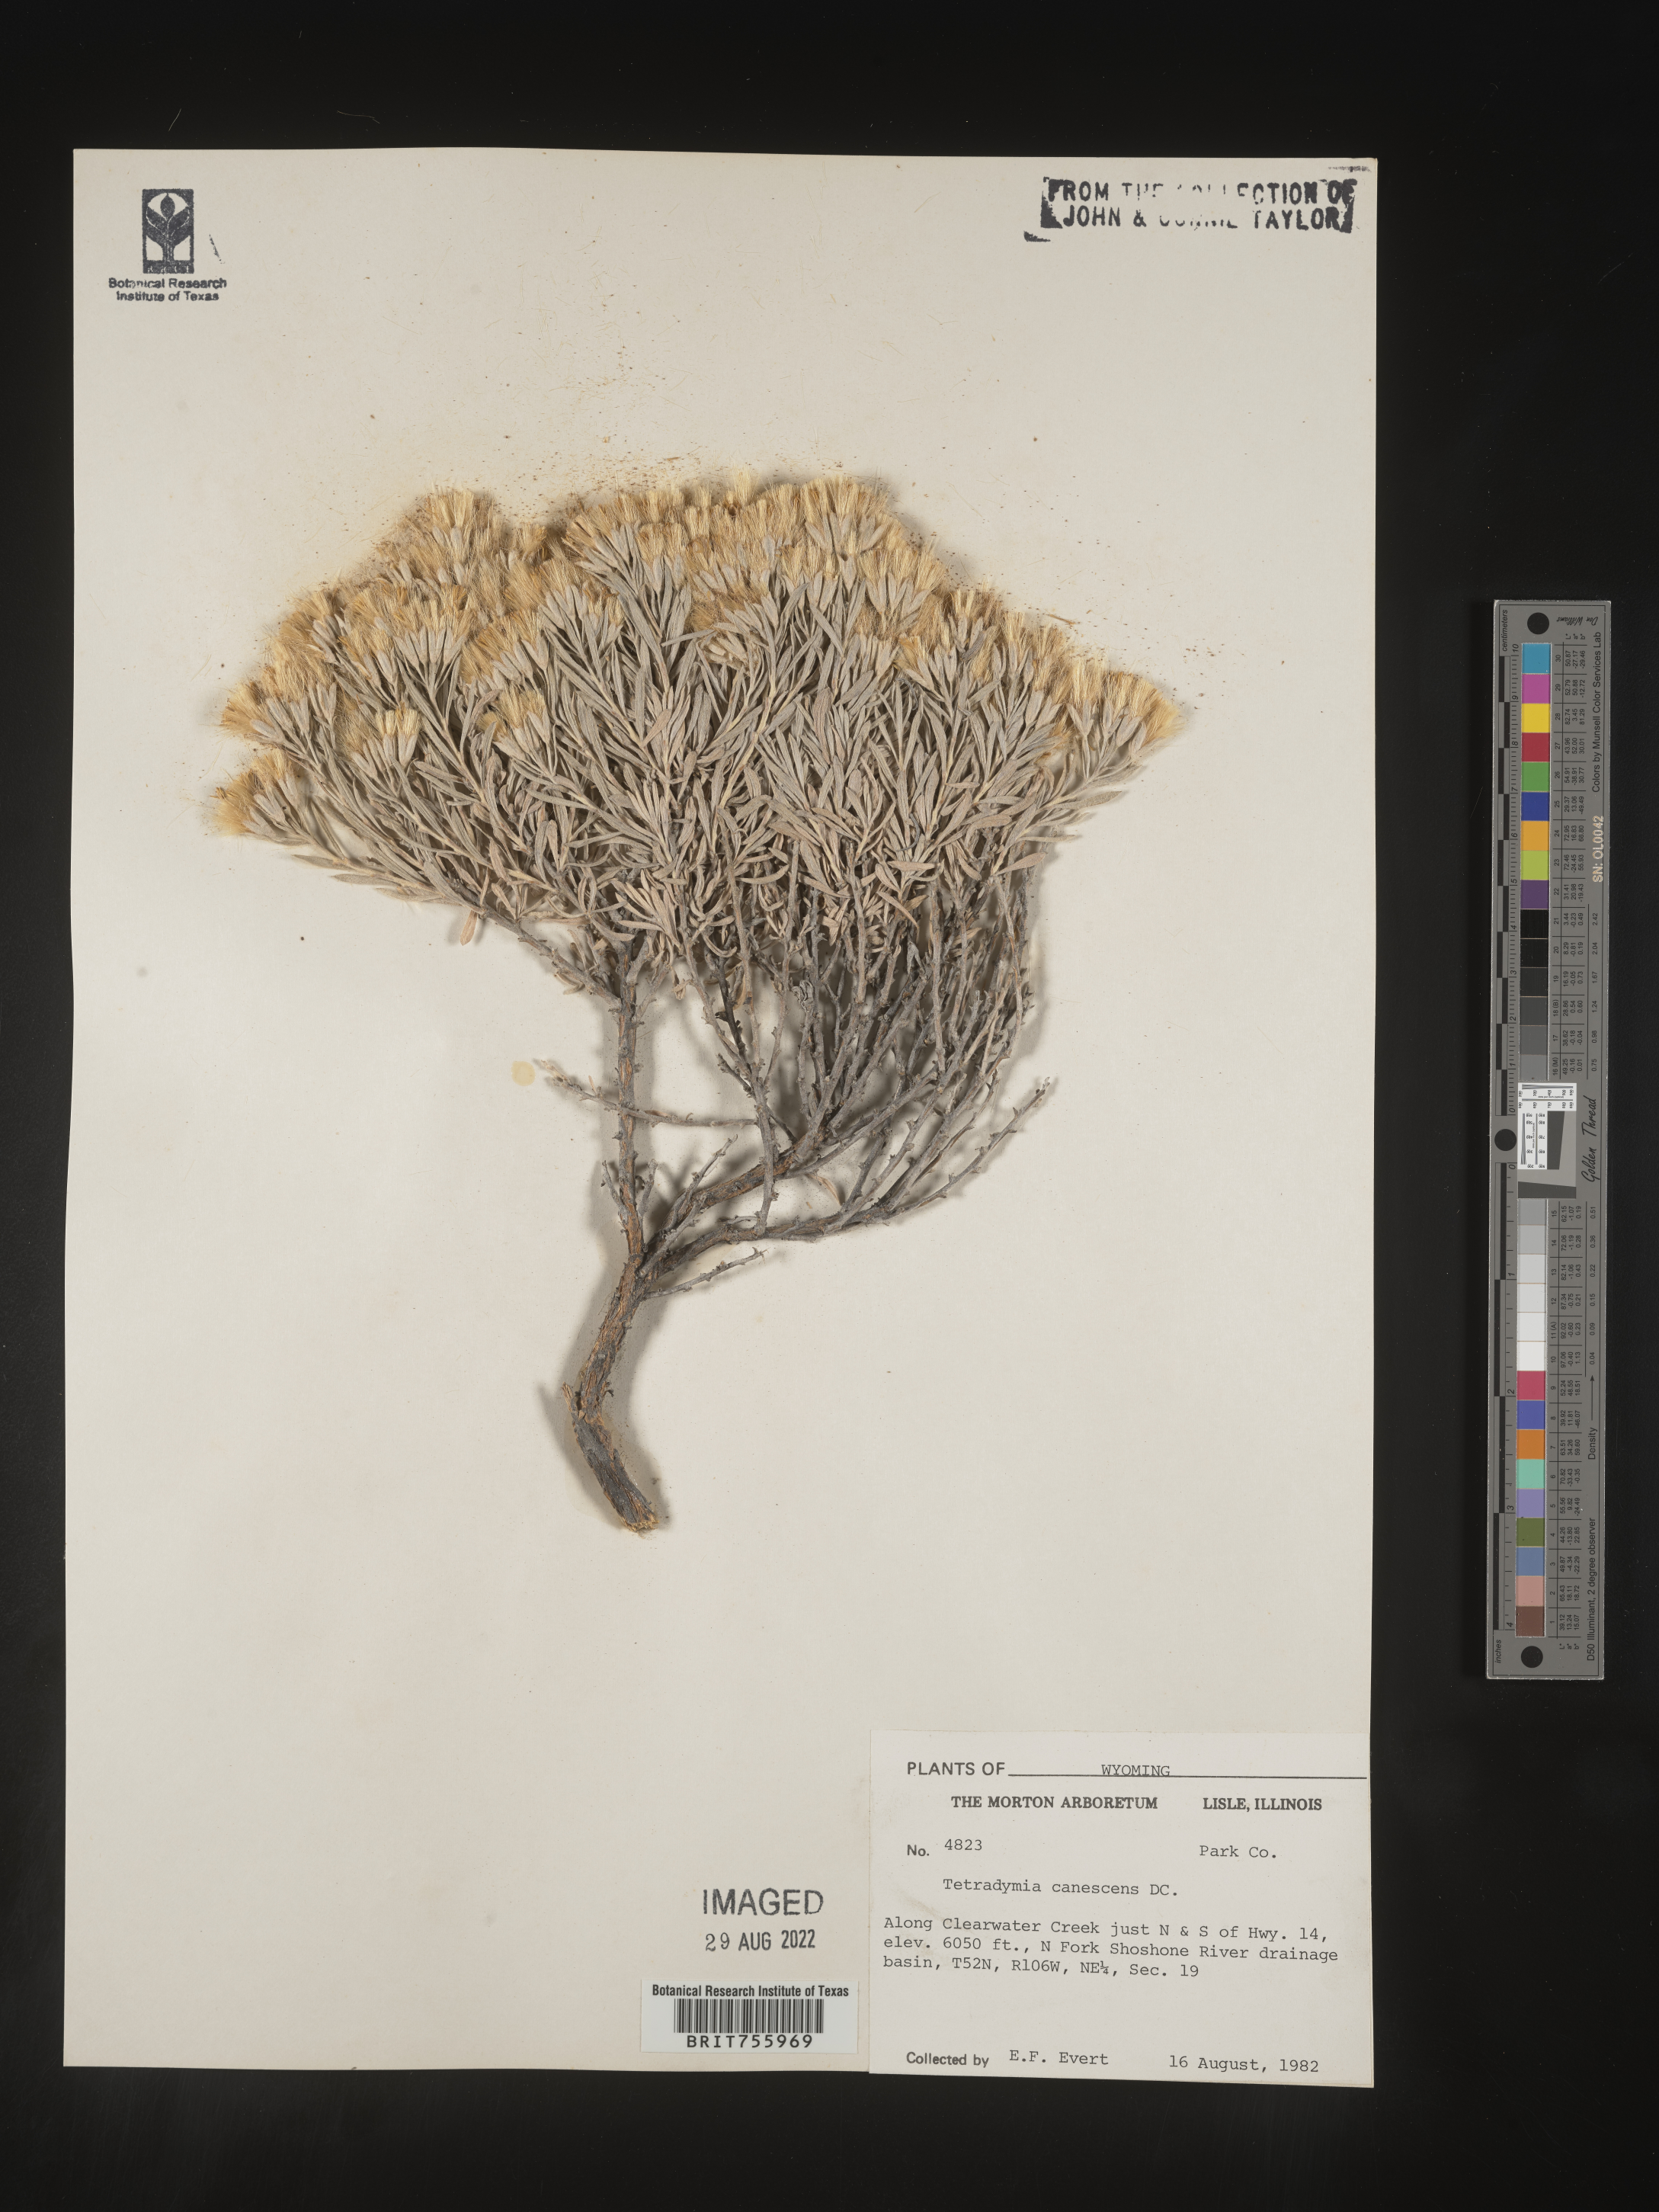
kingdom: Plantae
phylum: Tracheophyta
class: Magnoliopsida
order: Asterales
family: Asteraceae
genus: Tetradymia
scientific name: Tetradymia canescens
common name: Spineless horsebrush
